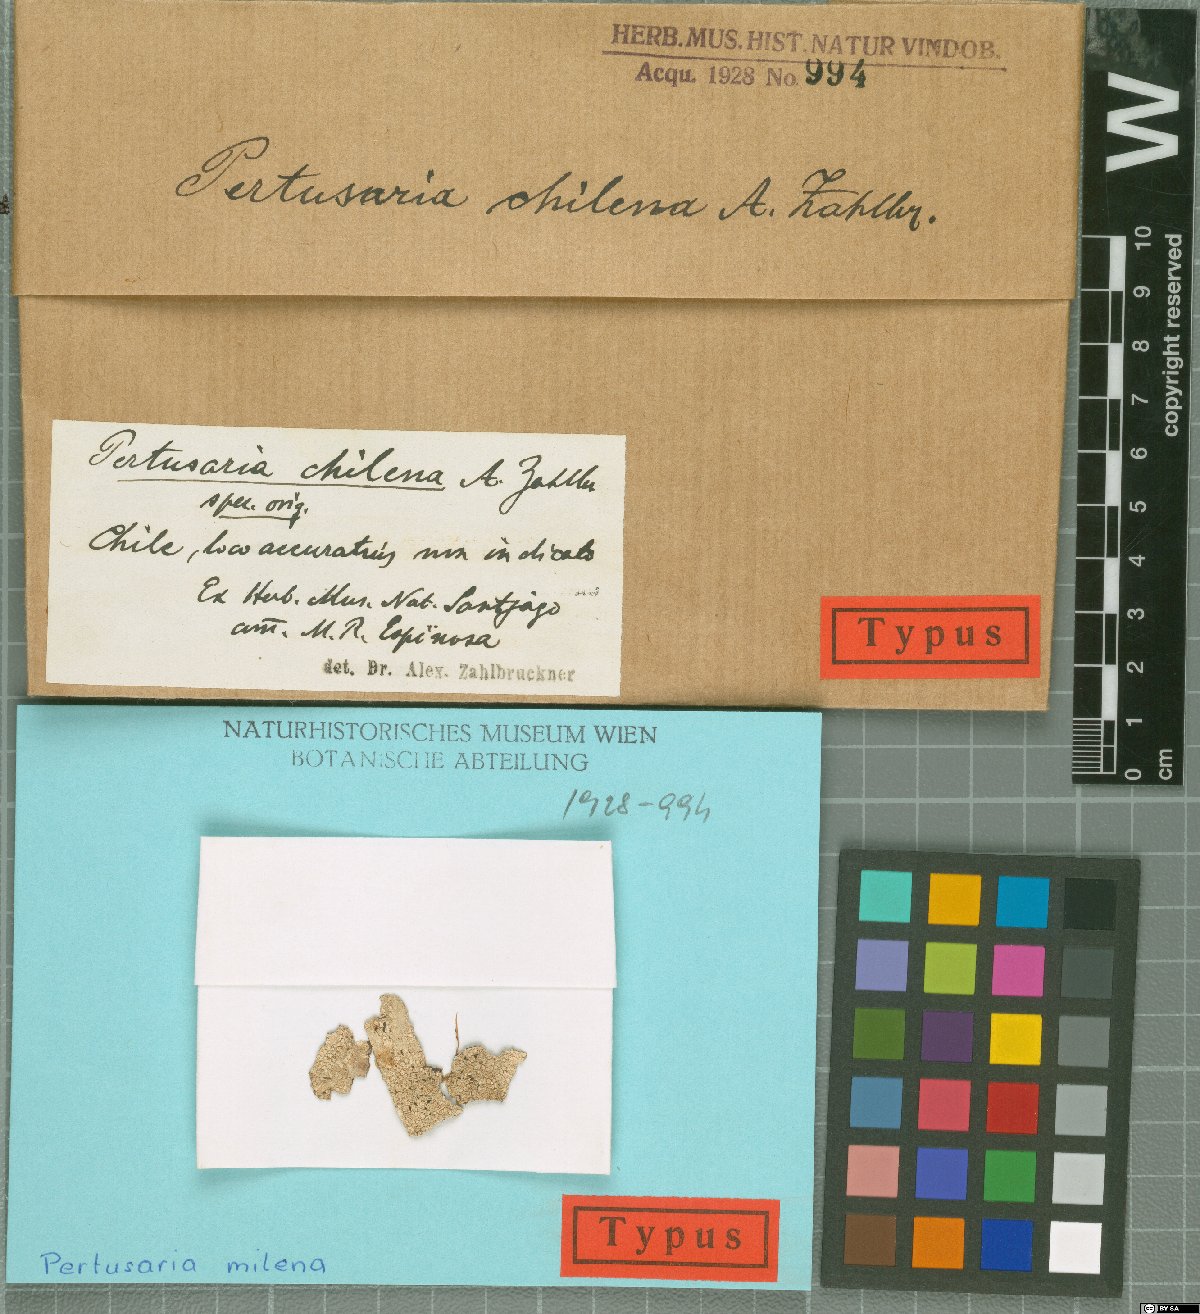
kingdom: Fungi
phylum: Ascomycota
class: Lecanoromycetes
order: Pertusariales
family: Pertusariaceae
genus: Pertusaria
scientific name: Pertusaria chilense
